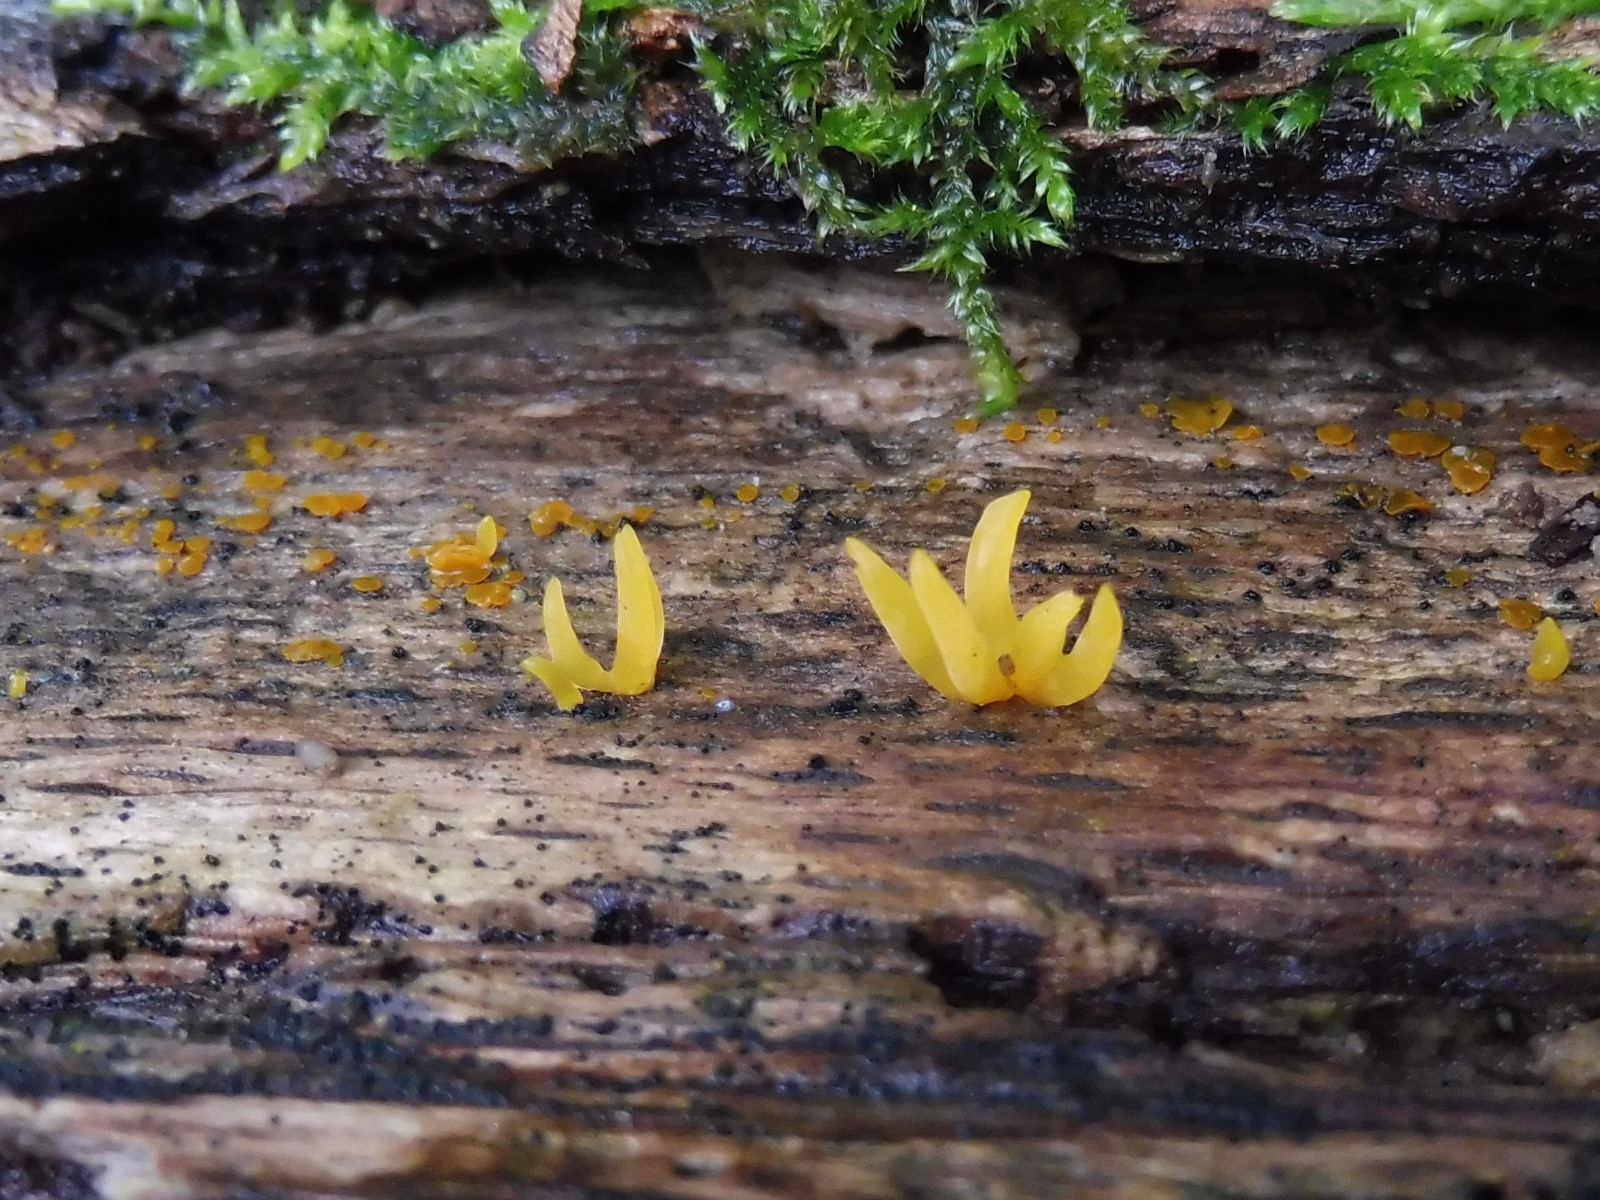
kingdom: Fungi
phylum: Basidiomycota
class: Dacrymycetes
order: Dacrymycetales
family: Dacrymycetaceae
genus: Calocera
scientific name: Calocera cornea
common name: liden guldgaffel
